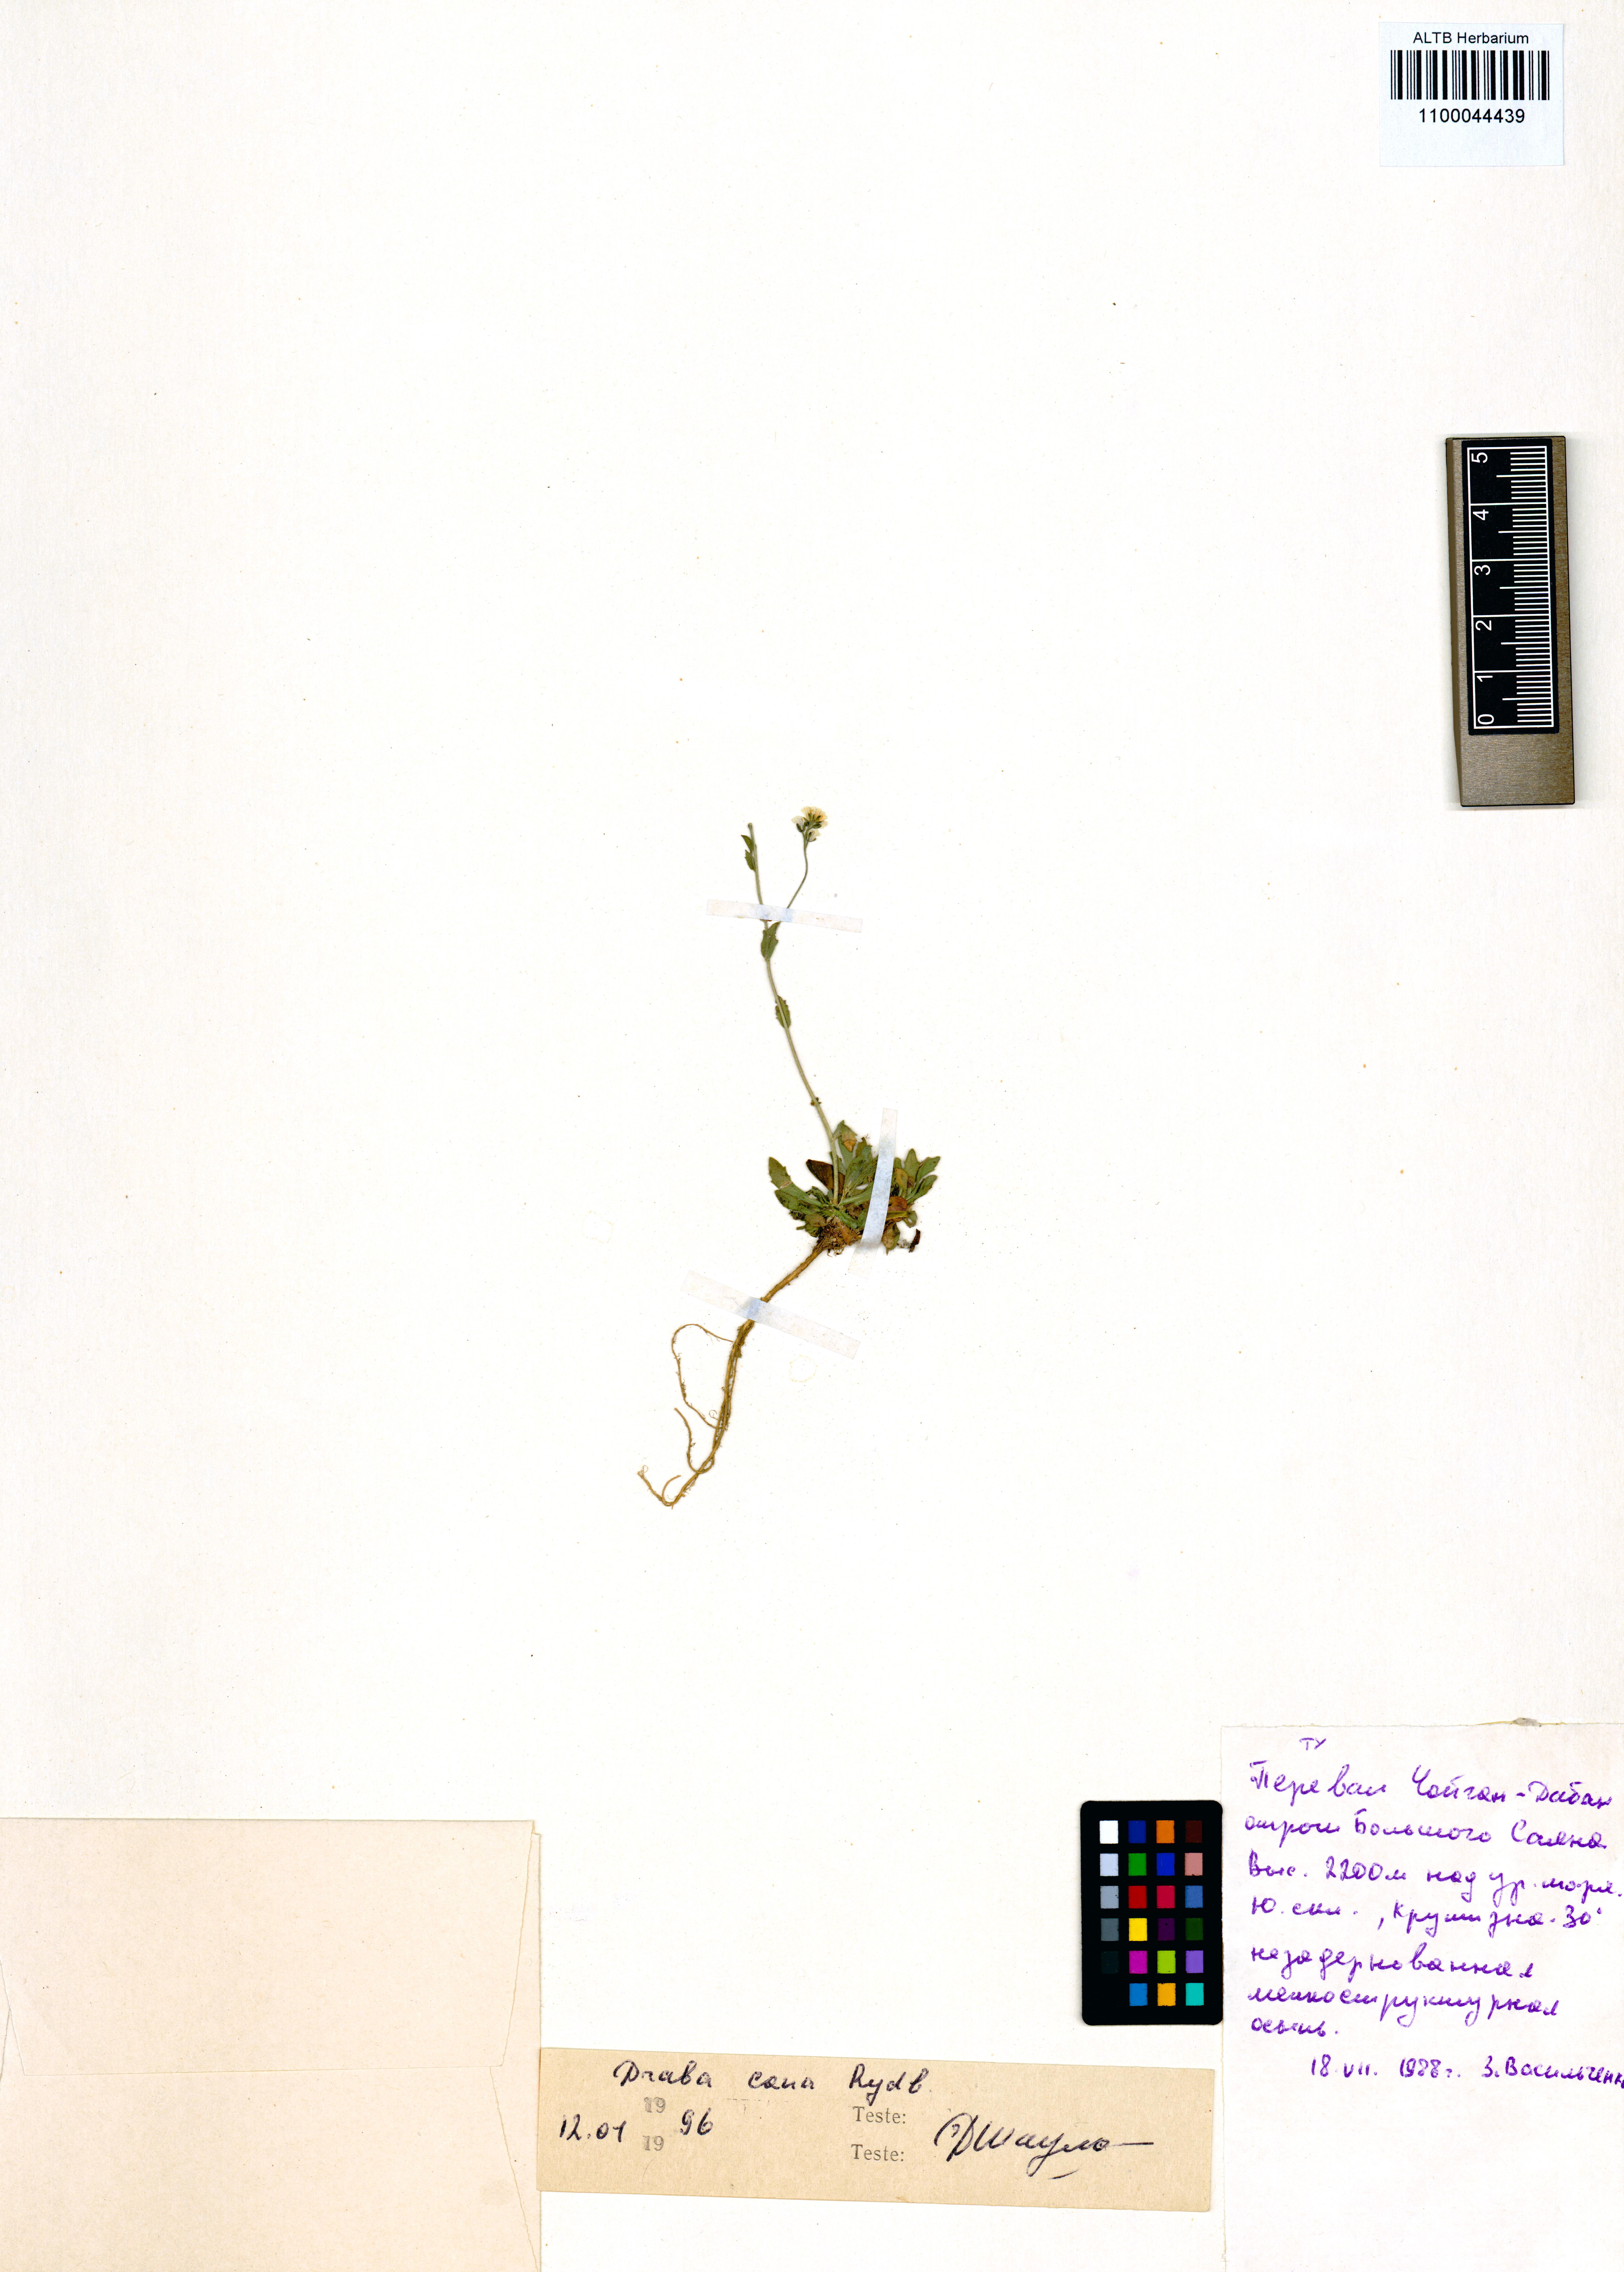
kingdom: Plantae
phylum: Tracheophyta
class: Magnoliopsida
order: Brassicales
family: Brassicaceae
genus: Draba
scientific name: Draba cana
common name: Hoary draba
